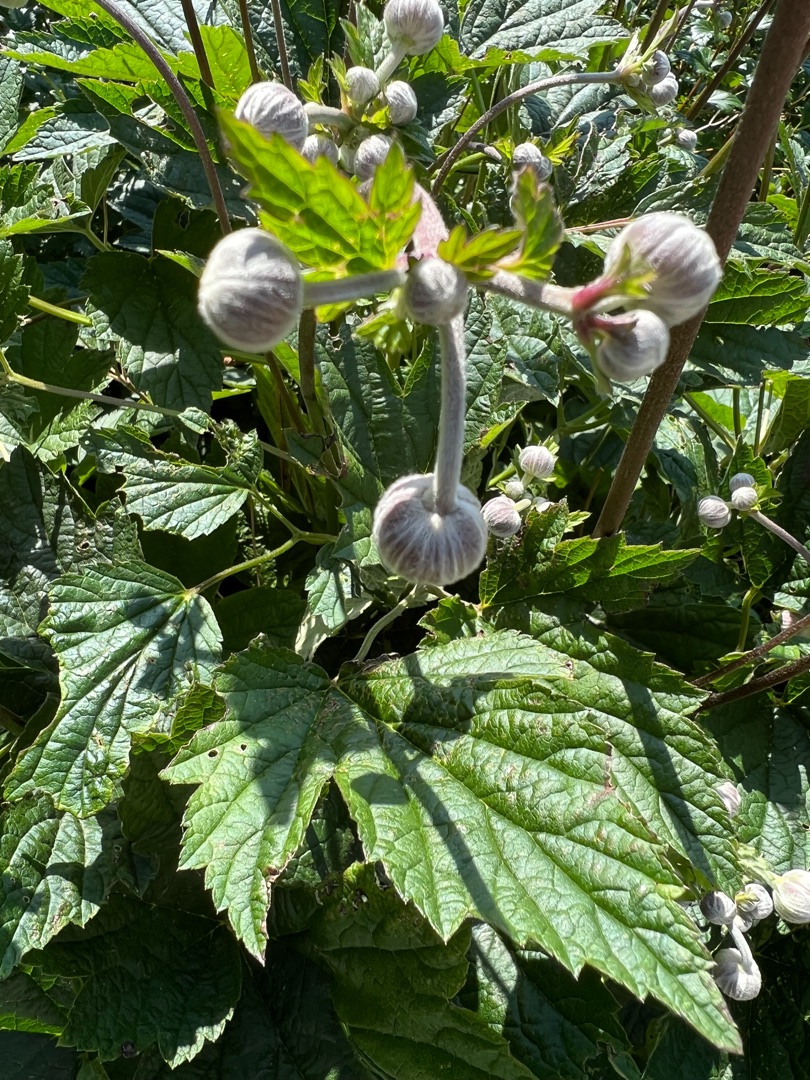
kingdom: Plantae
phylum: Tracheophyta
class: Magnoliopsida
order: Ranunculales
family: Ranunculaceae
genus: Eriocapitella
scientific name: Eriocapitella hupehensis
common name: Høst-anemone
